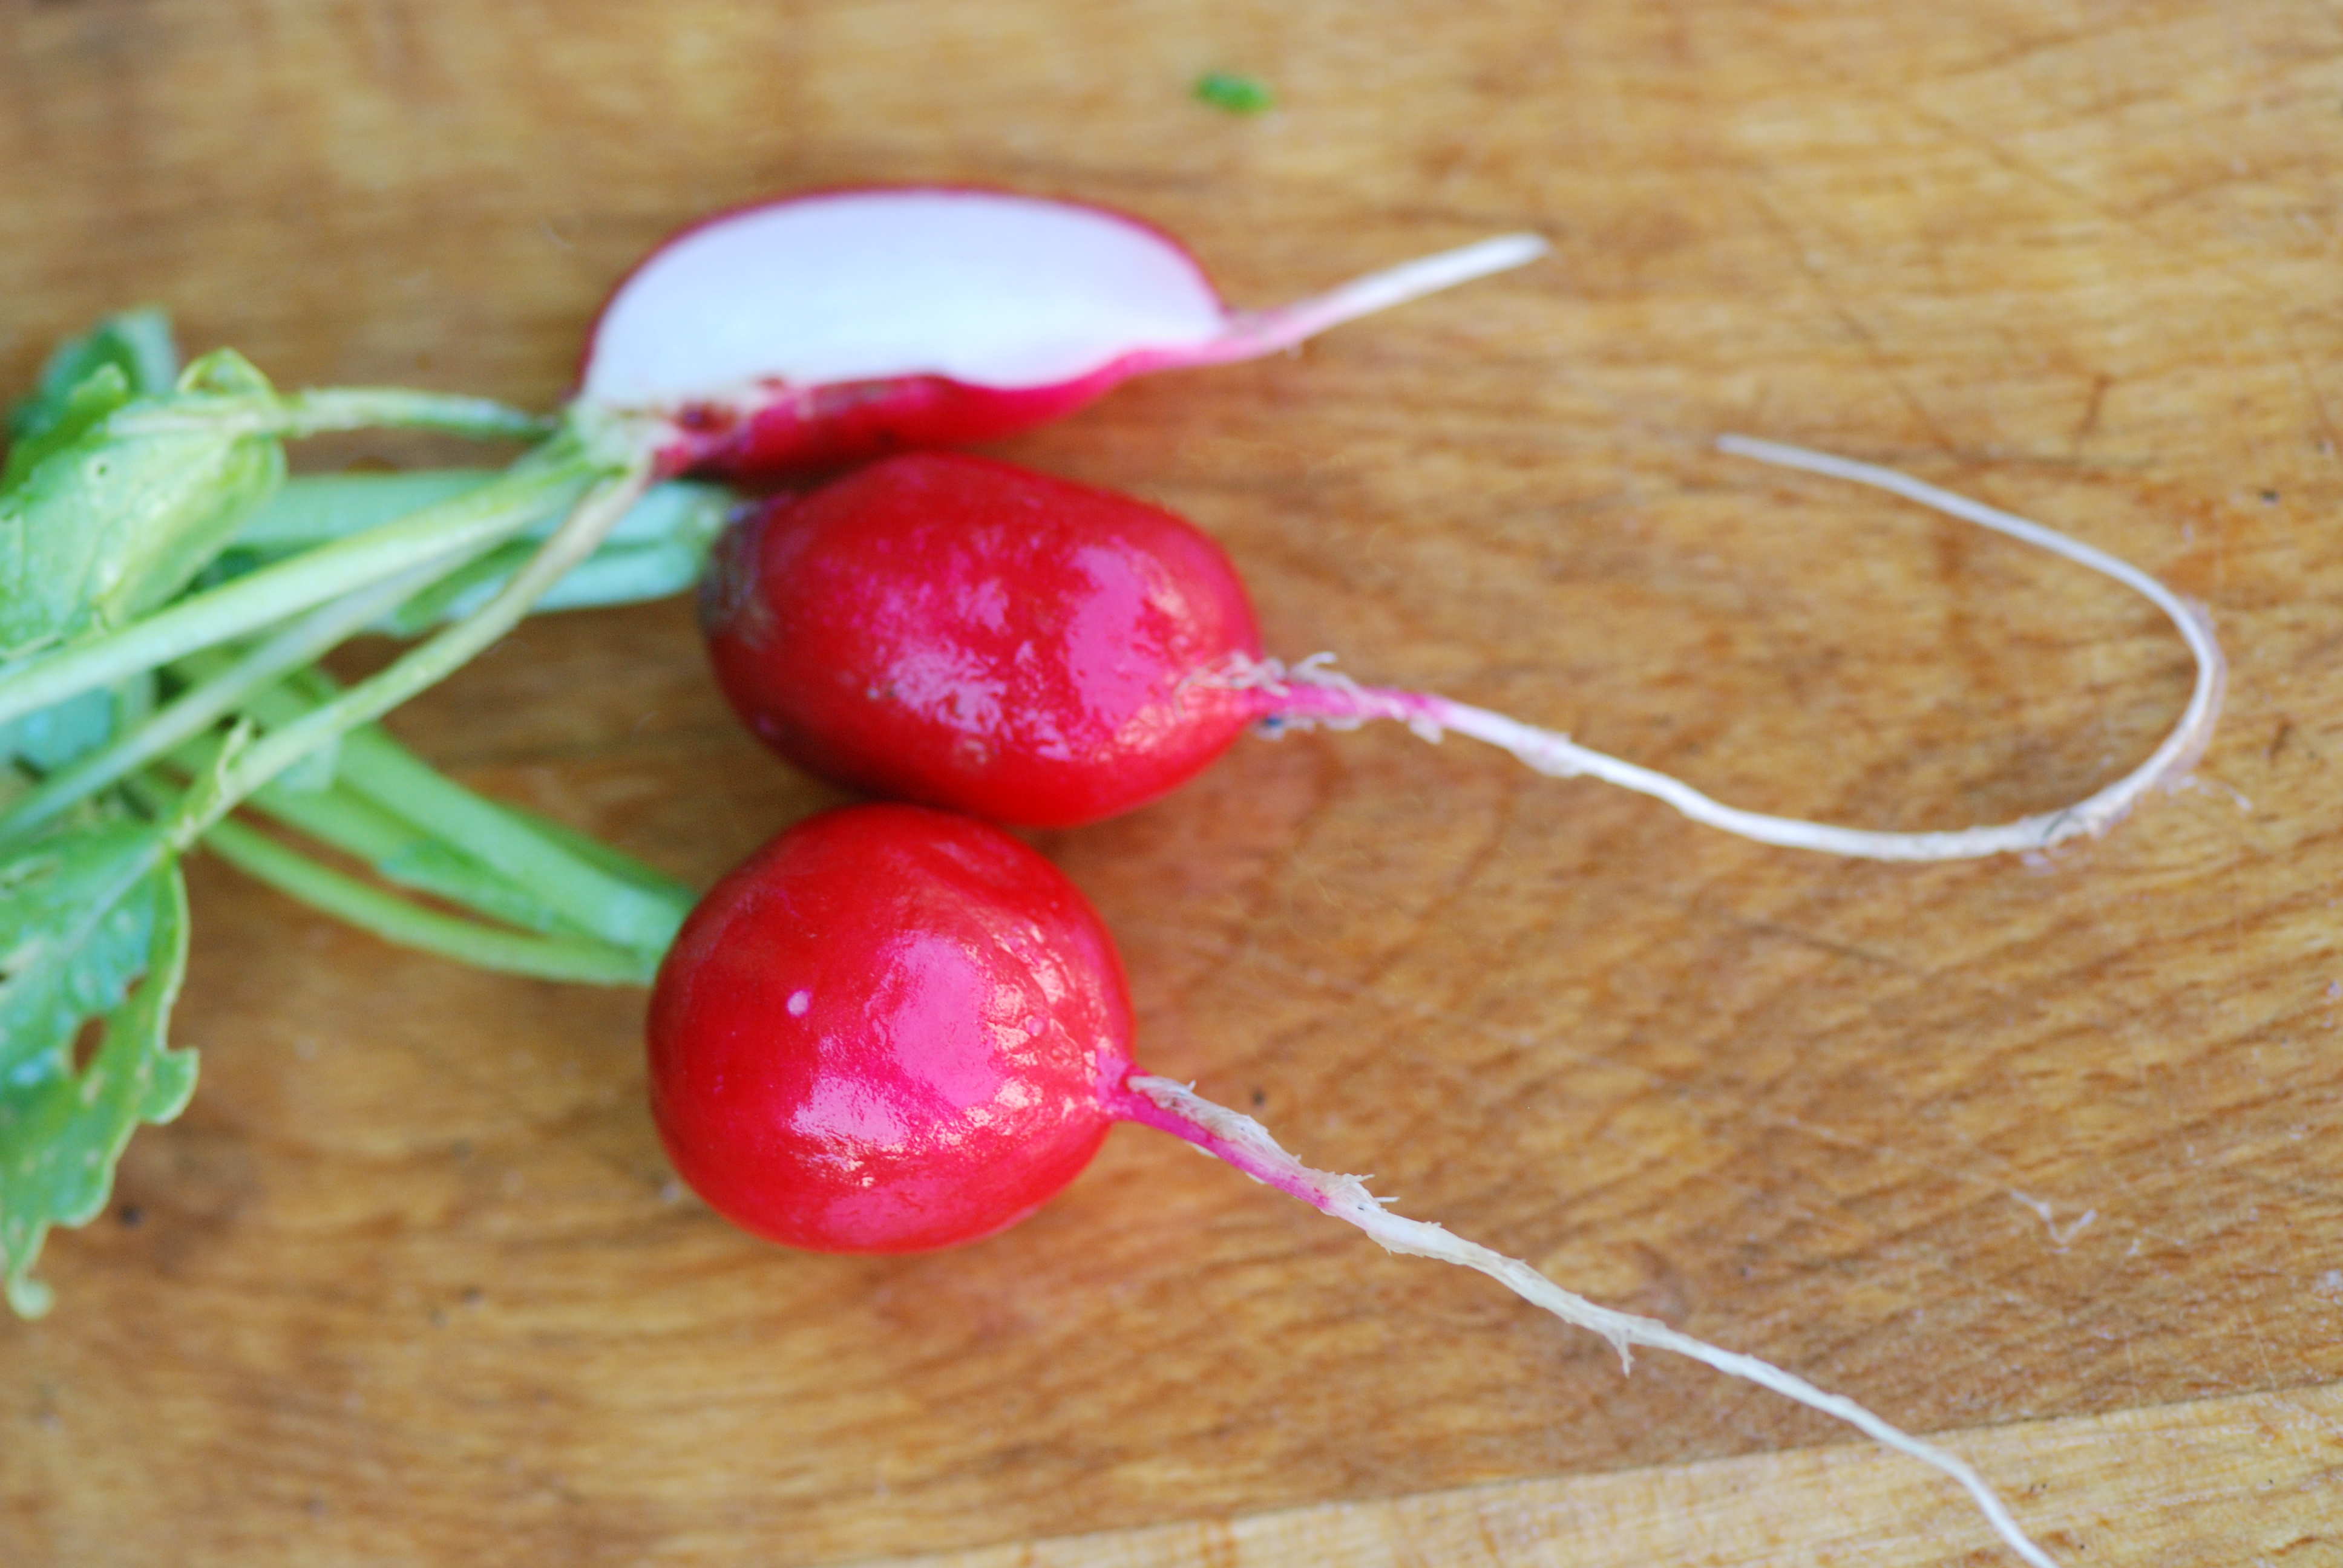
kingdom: Plantae
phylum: Tracheophyta
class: Magnoliopsida
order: Brassicales
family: Brassicaceae
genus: Raphanus
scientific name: Raphanus sativus
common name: Cultivated radish
